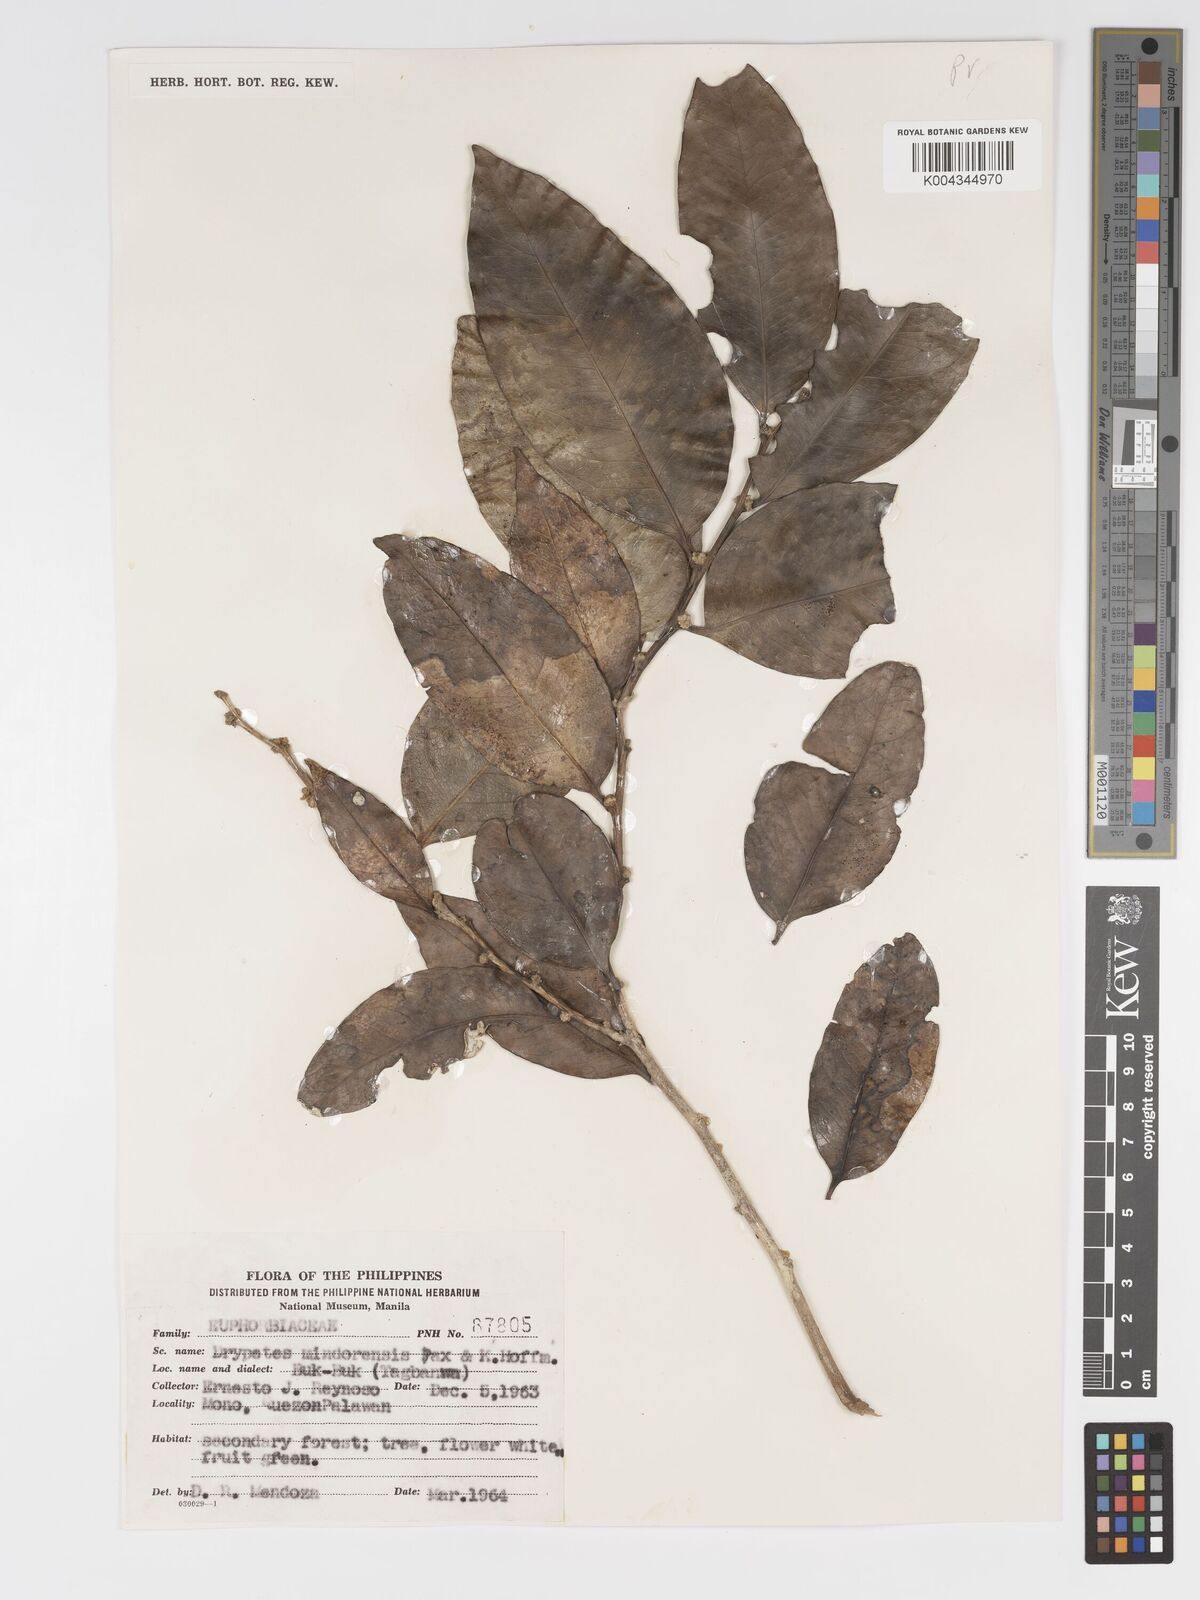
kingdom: Plantae
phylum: Tracheophyta
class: Magnoliopsida
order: Malpighiales
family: Putranjivaceae
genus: Drypetes
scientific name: Drypetes littoralis
